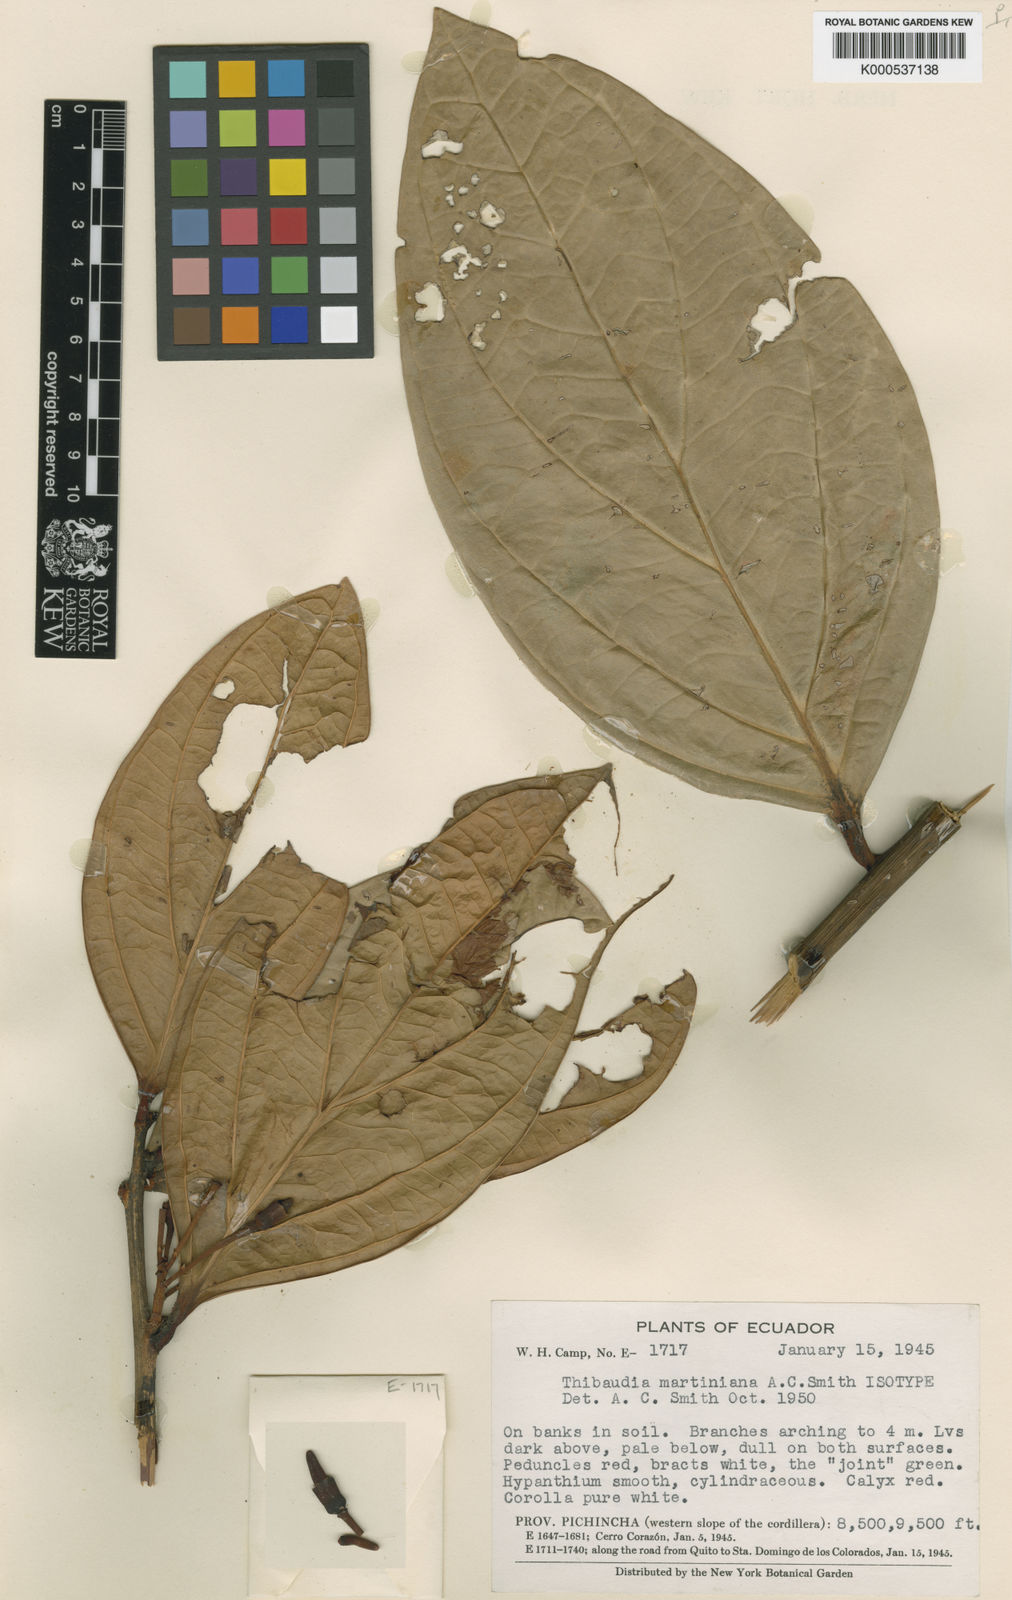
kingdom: Plantae
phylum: Tracheophyta
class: Magnoliopsida
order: Ericales
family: Ericaceae
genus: Thibaudia
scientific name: Thibaudia martiniana
